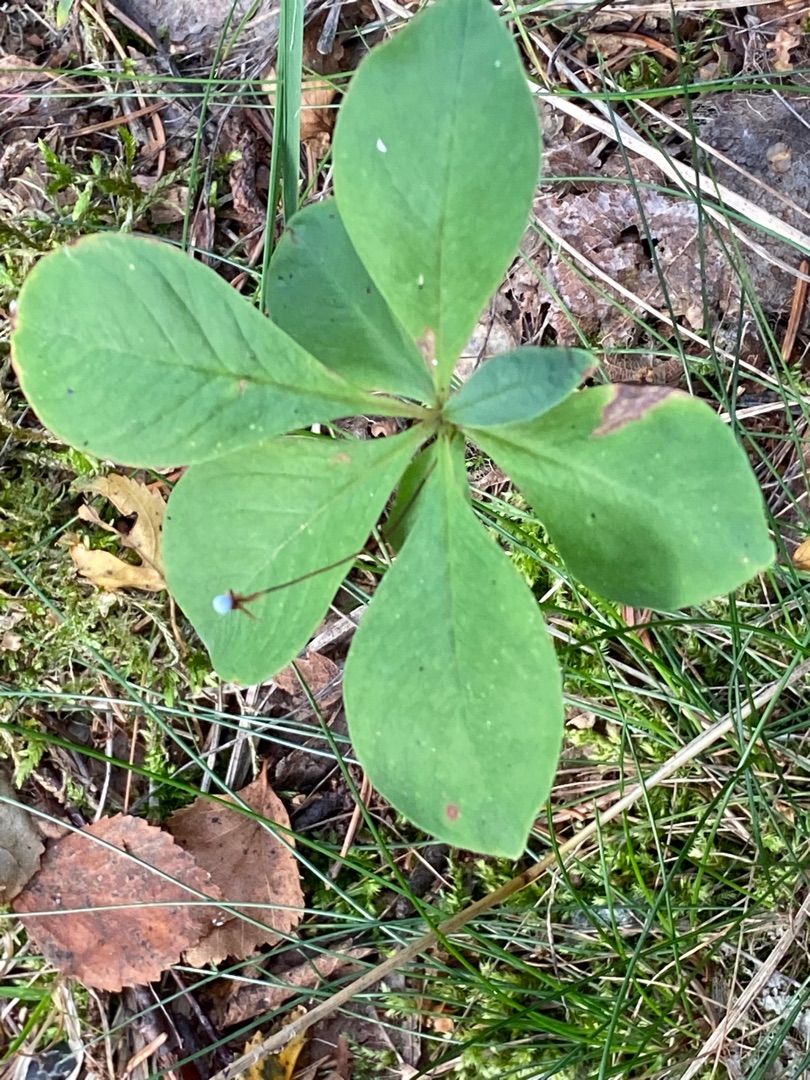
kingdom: Plantae
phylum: Tracheophyta
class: Magnoliopsida
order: Ericales
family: Primulaceae
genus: Lysimachia
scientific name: Lysimachia europaea
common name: Skovstjerne
